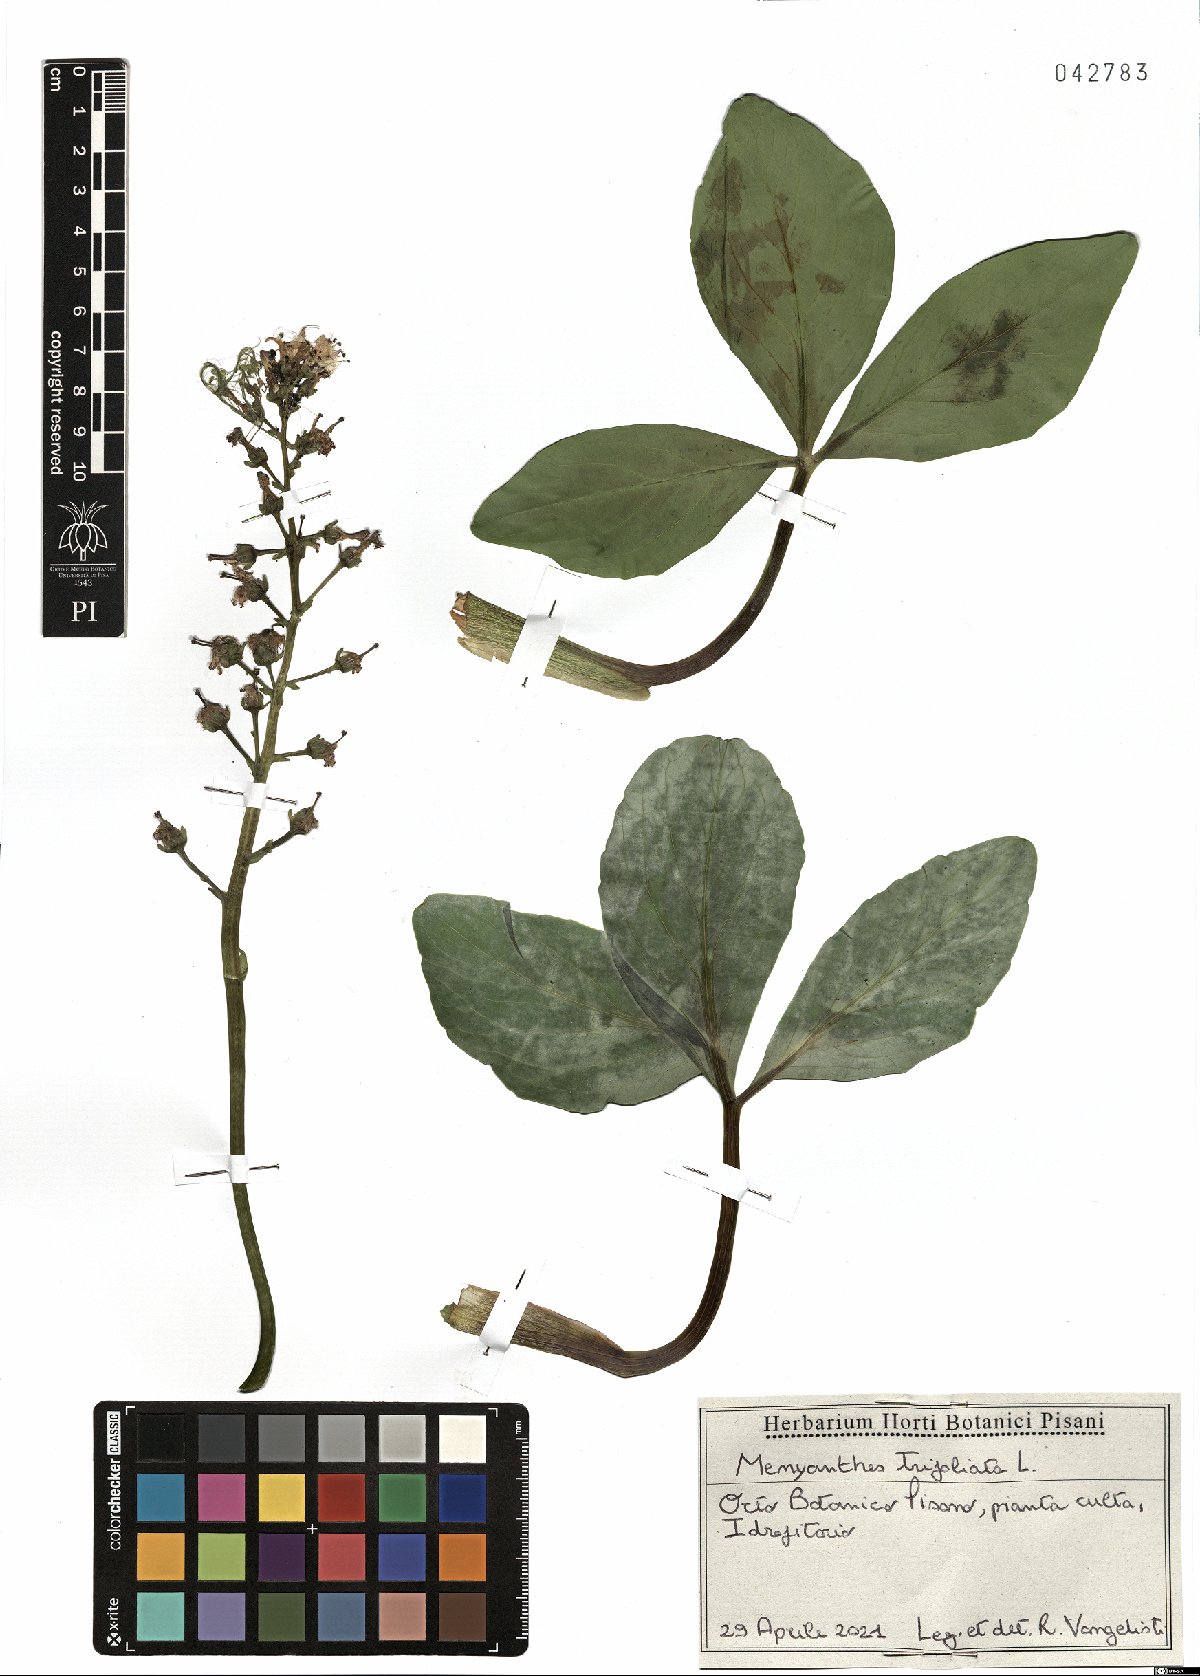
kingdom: Plantae
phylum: Tracheophyta
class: Magnoliopsida
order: Asterales
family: Menyanthaceae
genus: Menyanthes
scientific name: Menyanthes trifoliata
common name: Bogbean
